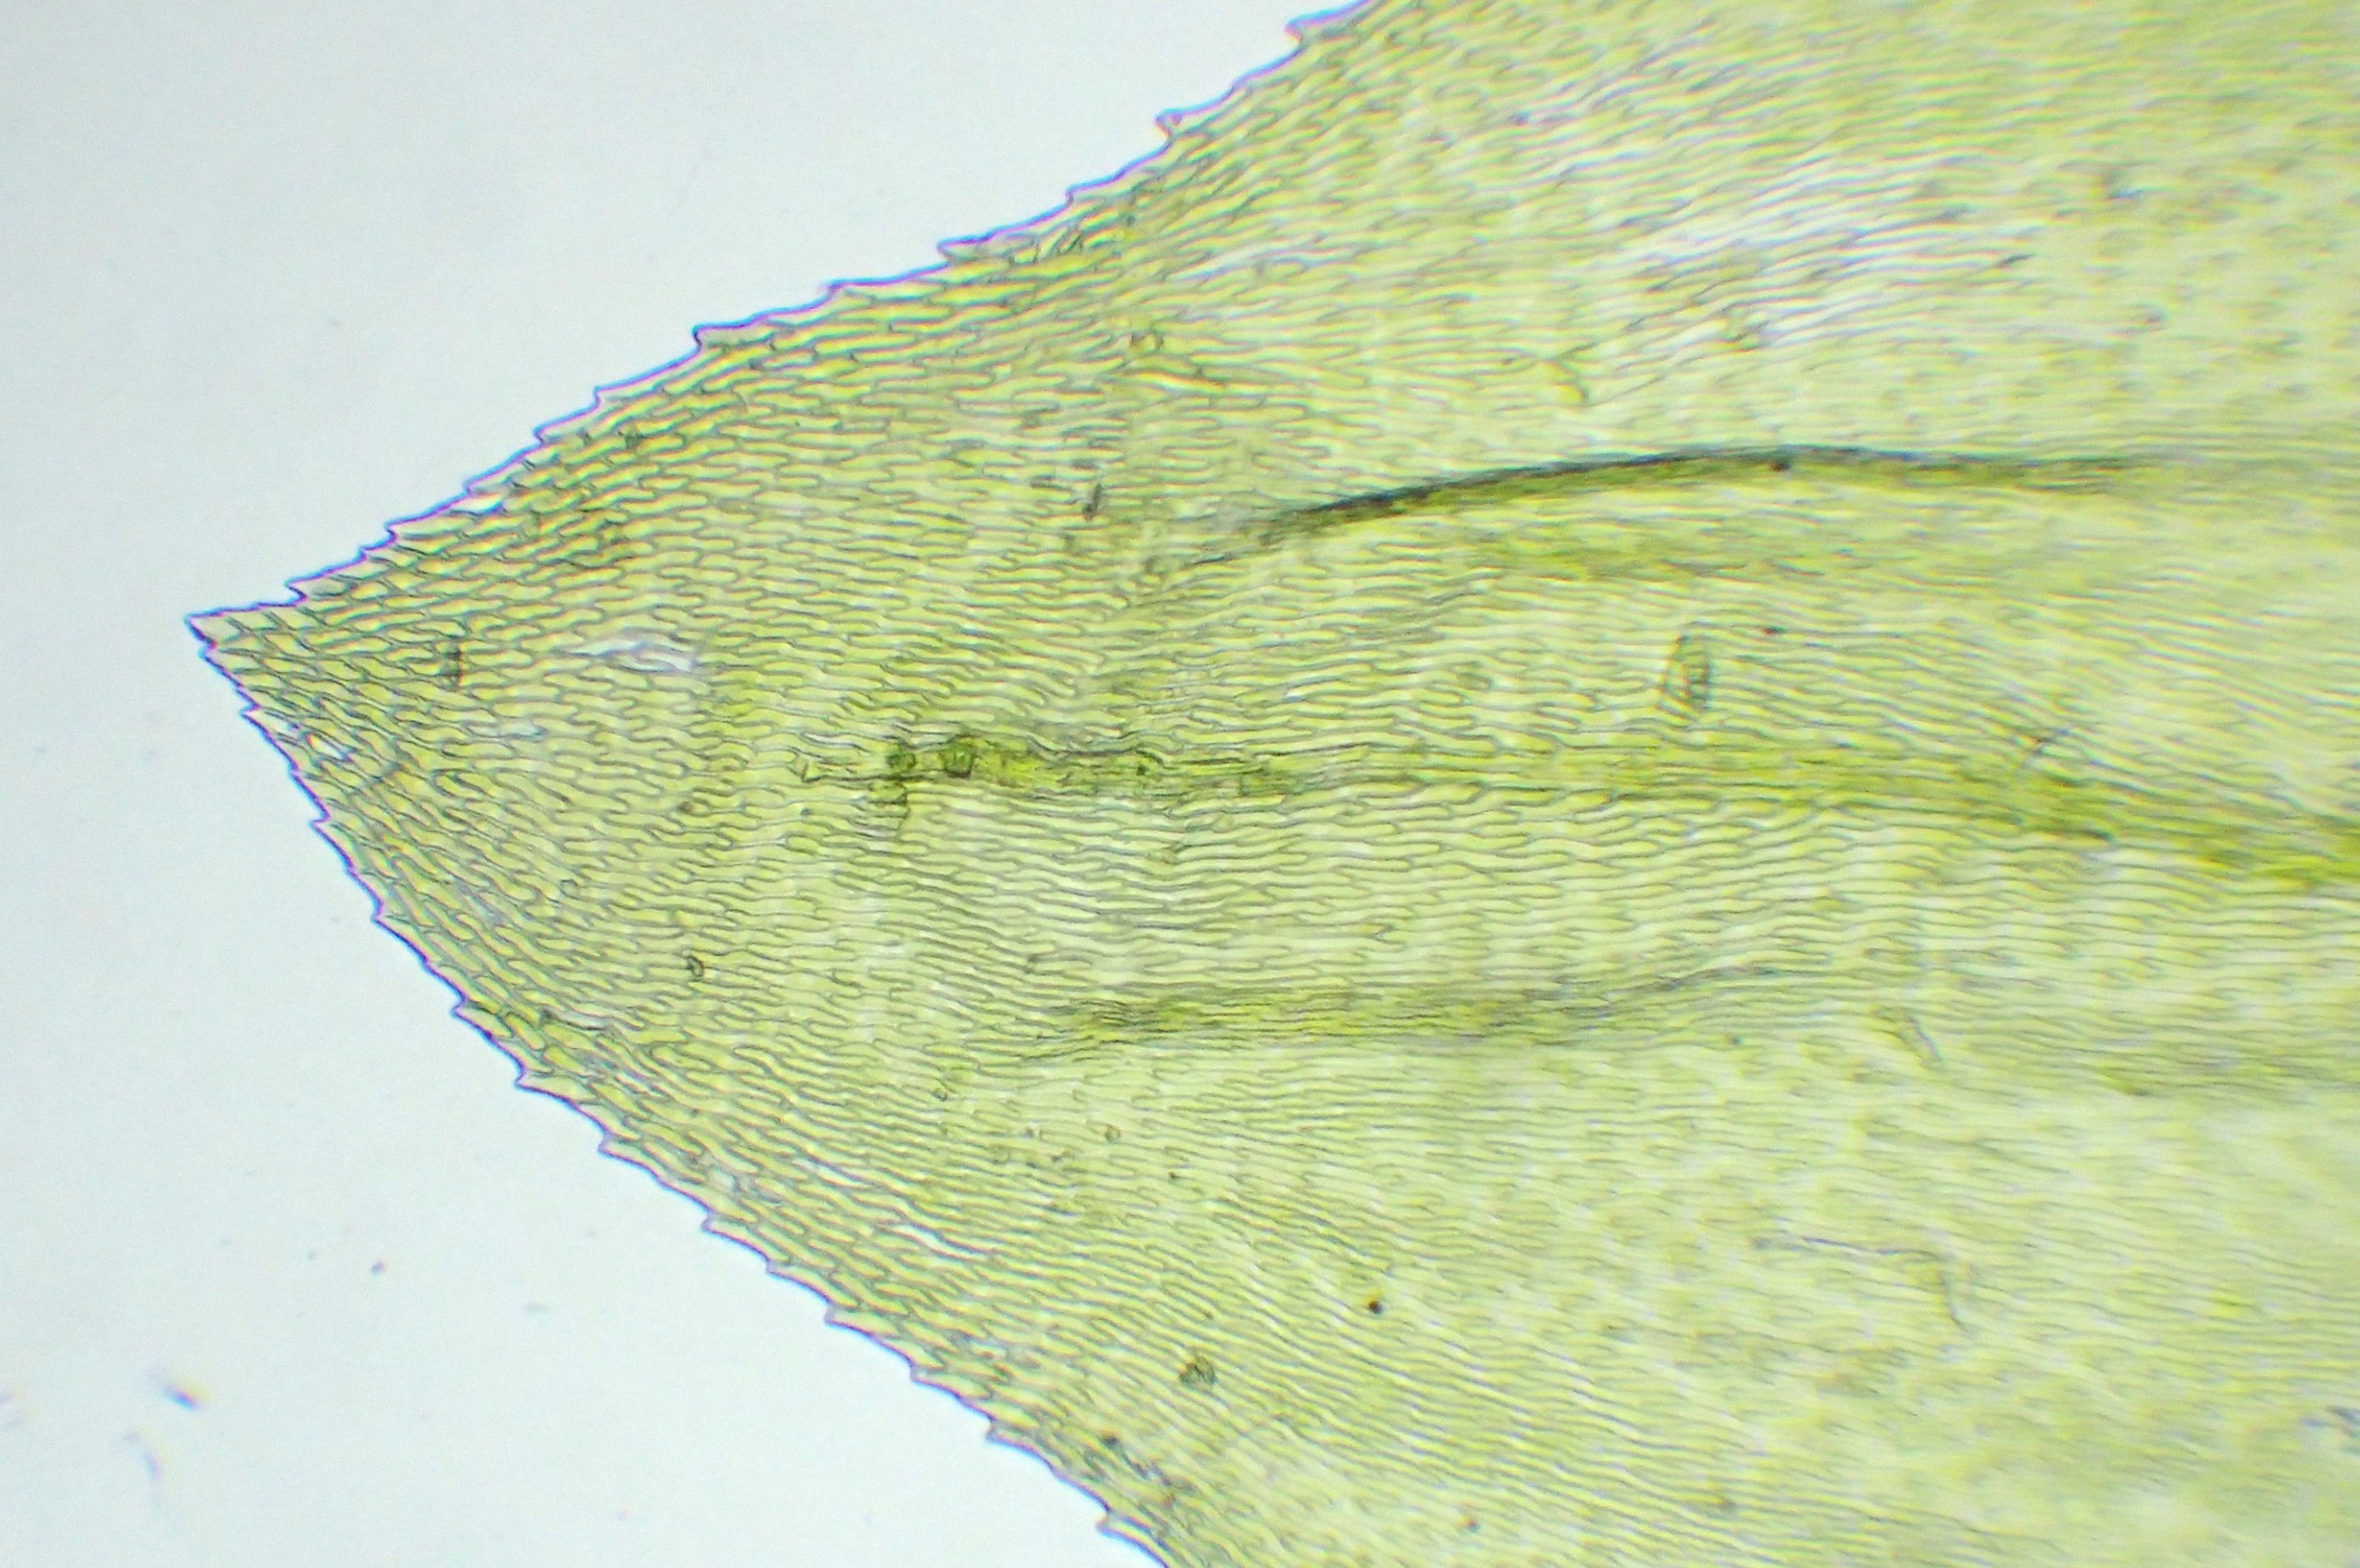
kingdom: Plantae
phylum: Bryophyta
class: Bryopsida
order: Hypnales
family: Brachytheciaceae
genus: Eurhynchium
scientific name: Eurhynchium angustirete
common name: Stor næbmos
